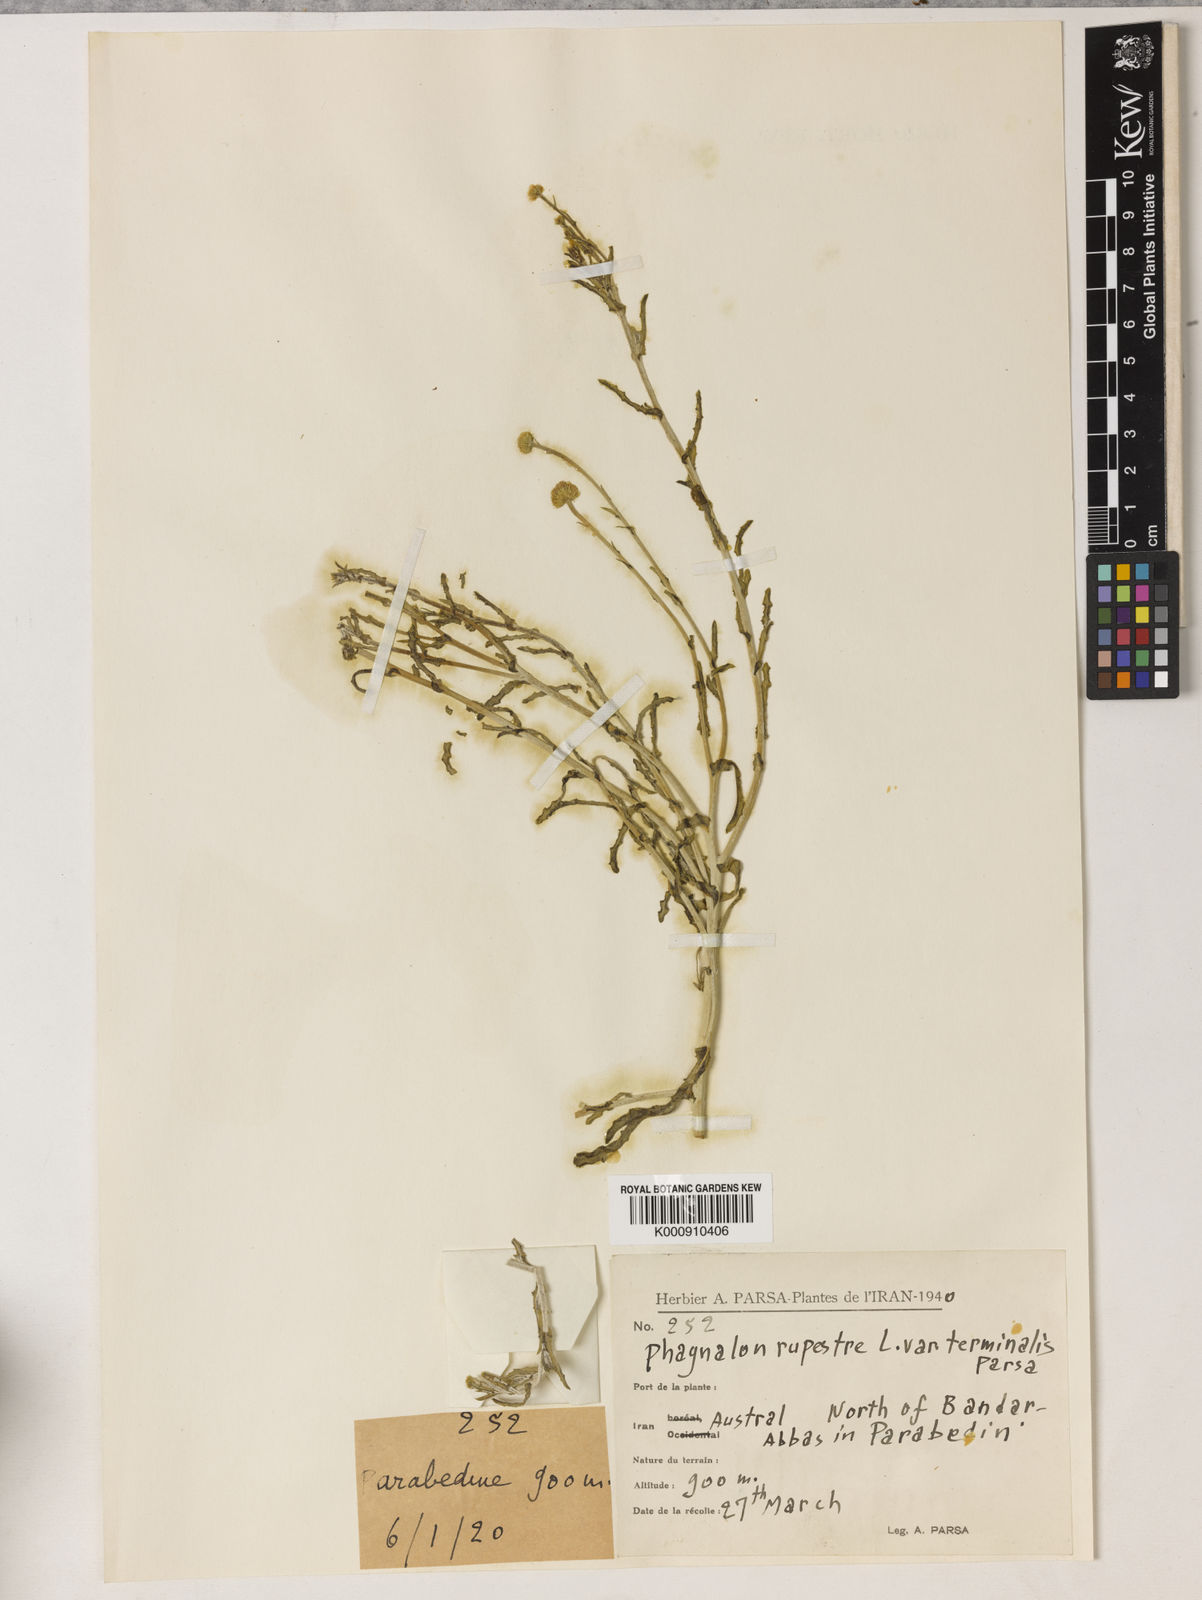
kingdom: Plantae
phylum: Tracheophyta
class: Magnoliopsida
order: Asterales
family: Asteraceae
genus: Phagnalon
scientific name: Phagnalon rupestre
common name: Rock phagnalon
